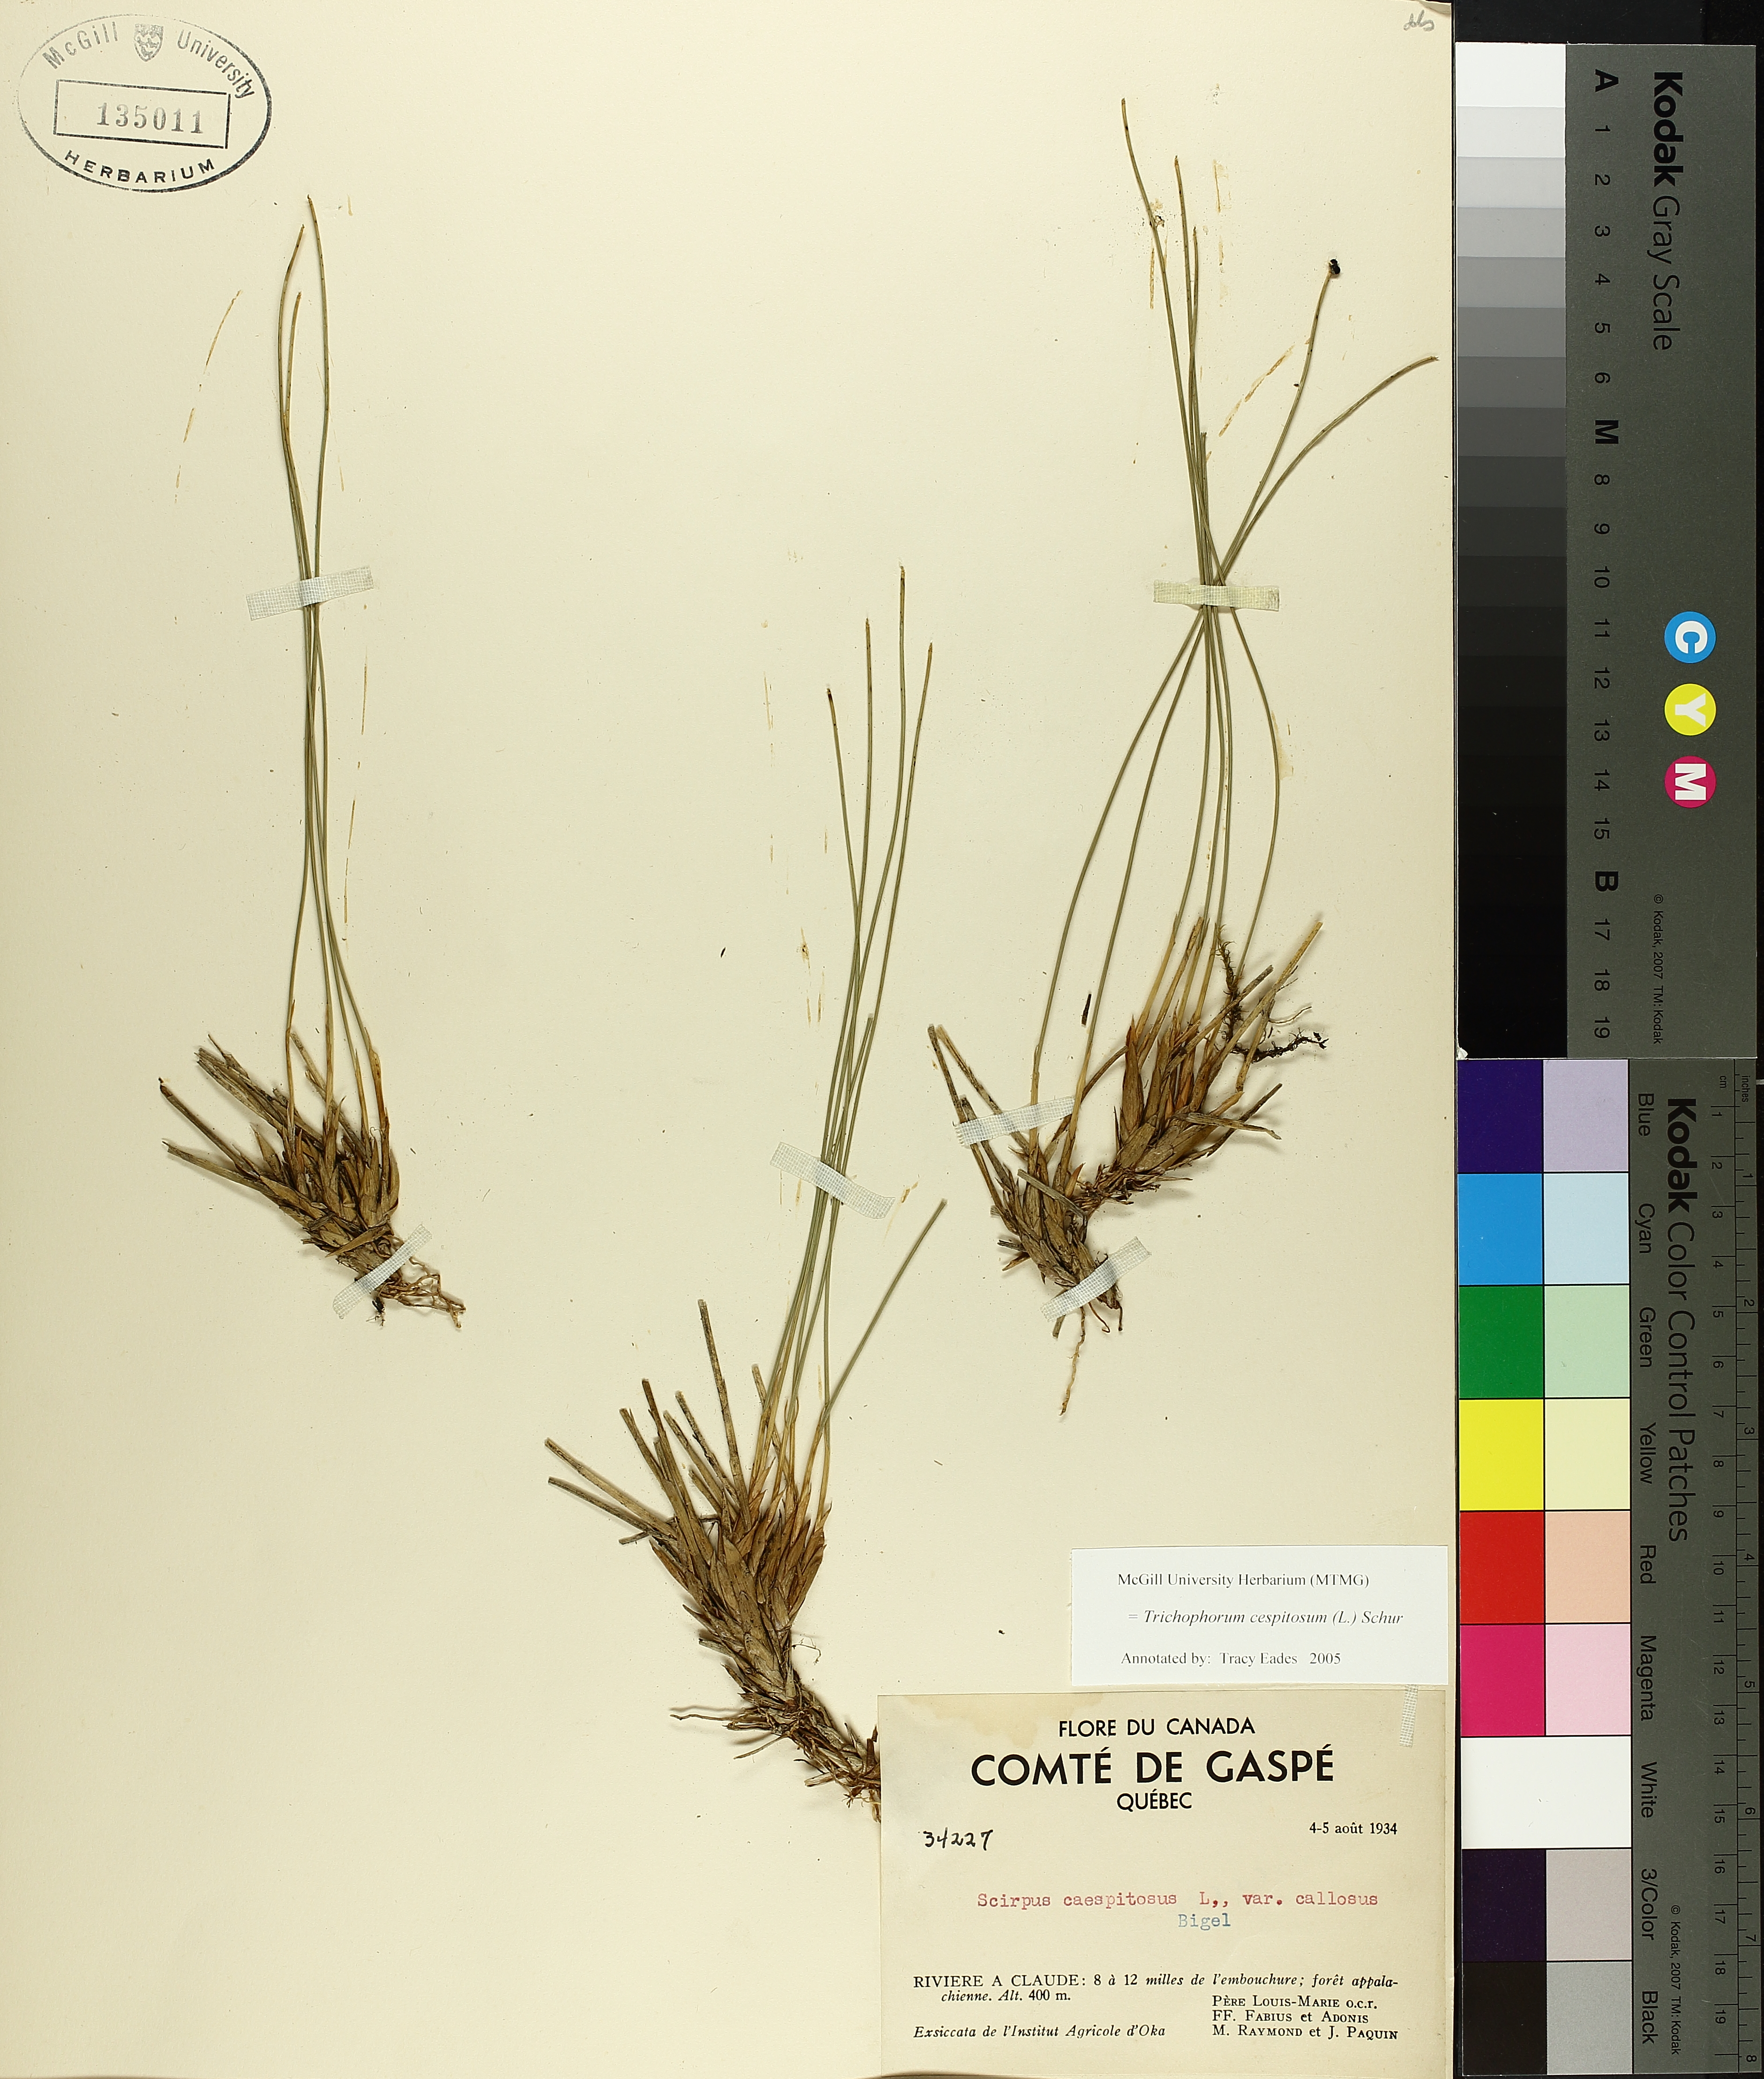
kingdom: Plantae
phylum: Tracheophyta
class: Liliopsida
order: Poales
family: Cyperaceae
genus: Trichophorum
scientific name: Trichophorum cespitosum
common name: Cespitose bulrush
